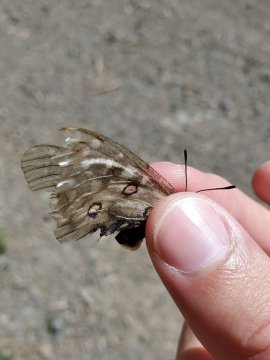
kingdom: Animalia
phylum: Arthropoda
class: Insecta
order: Lepidoptera
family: Papilionidae
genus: Parnassius
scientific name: Parnassius clodius
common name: Clodius Parnassian
